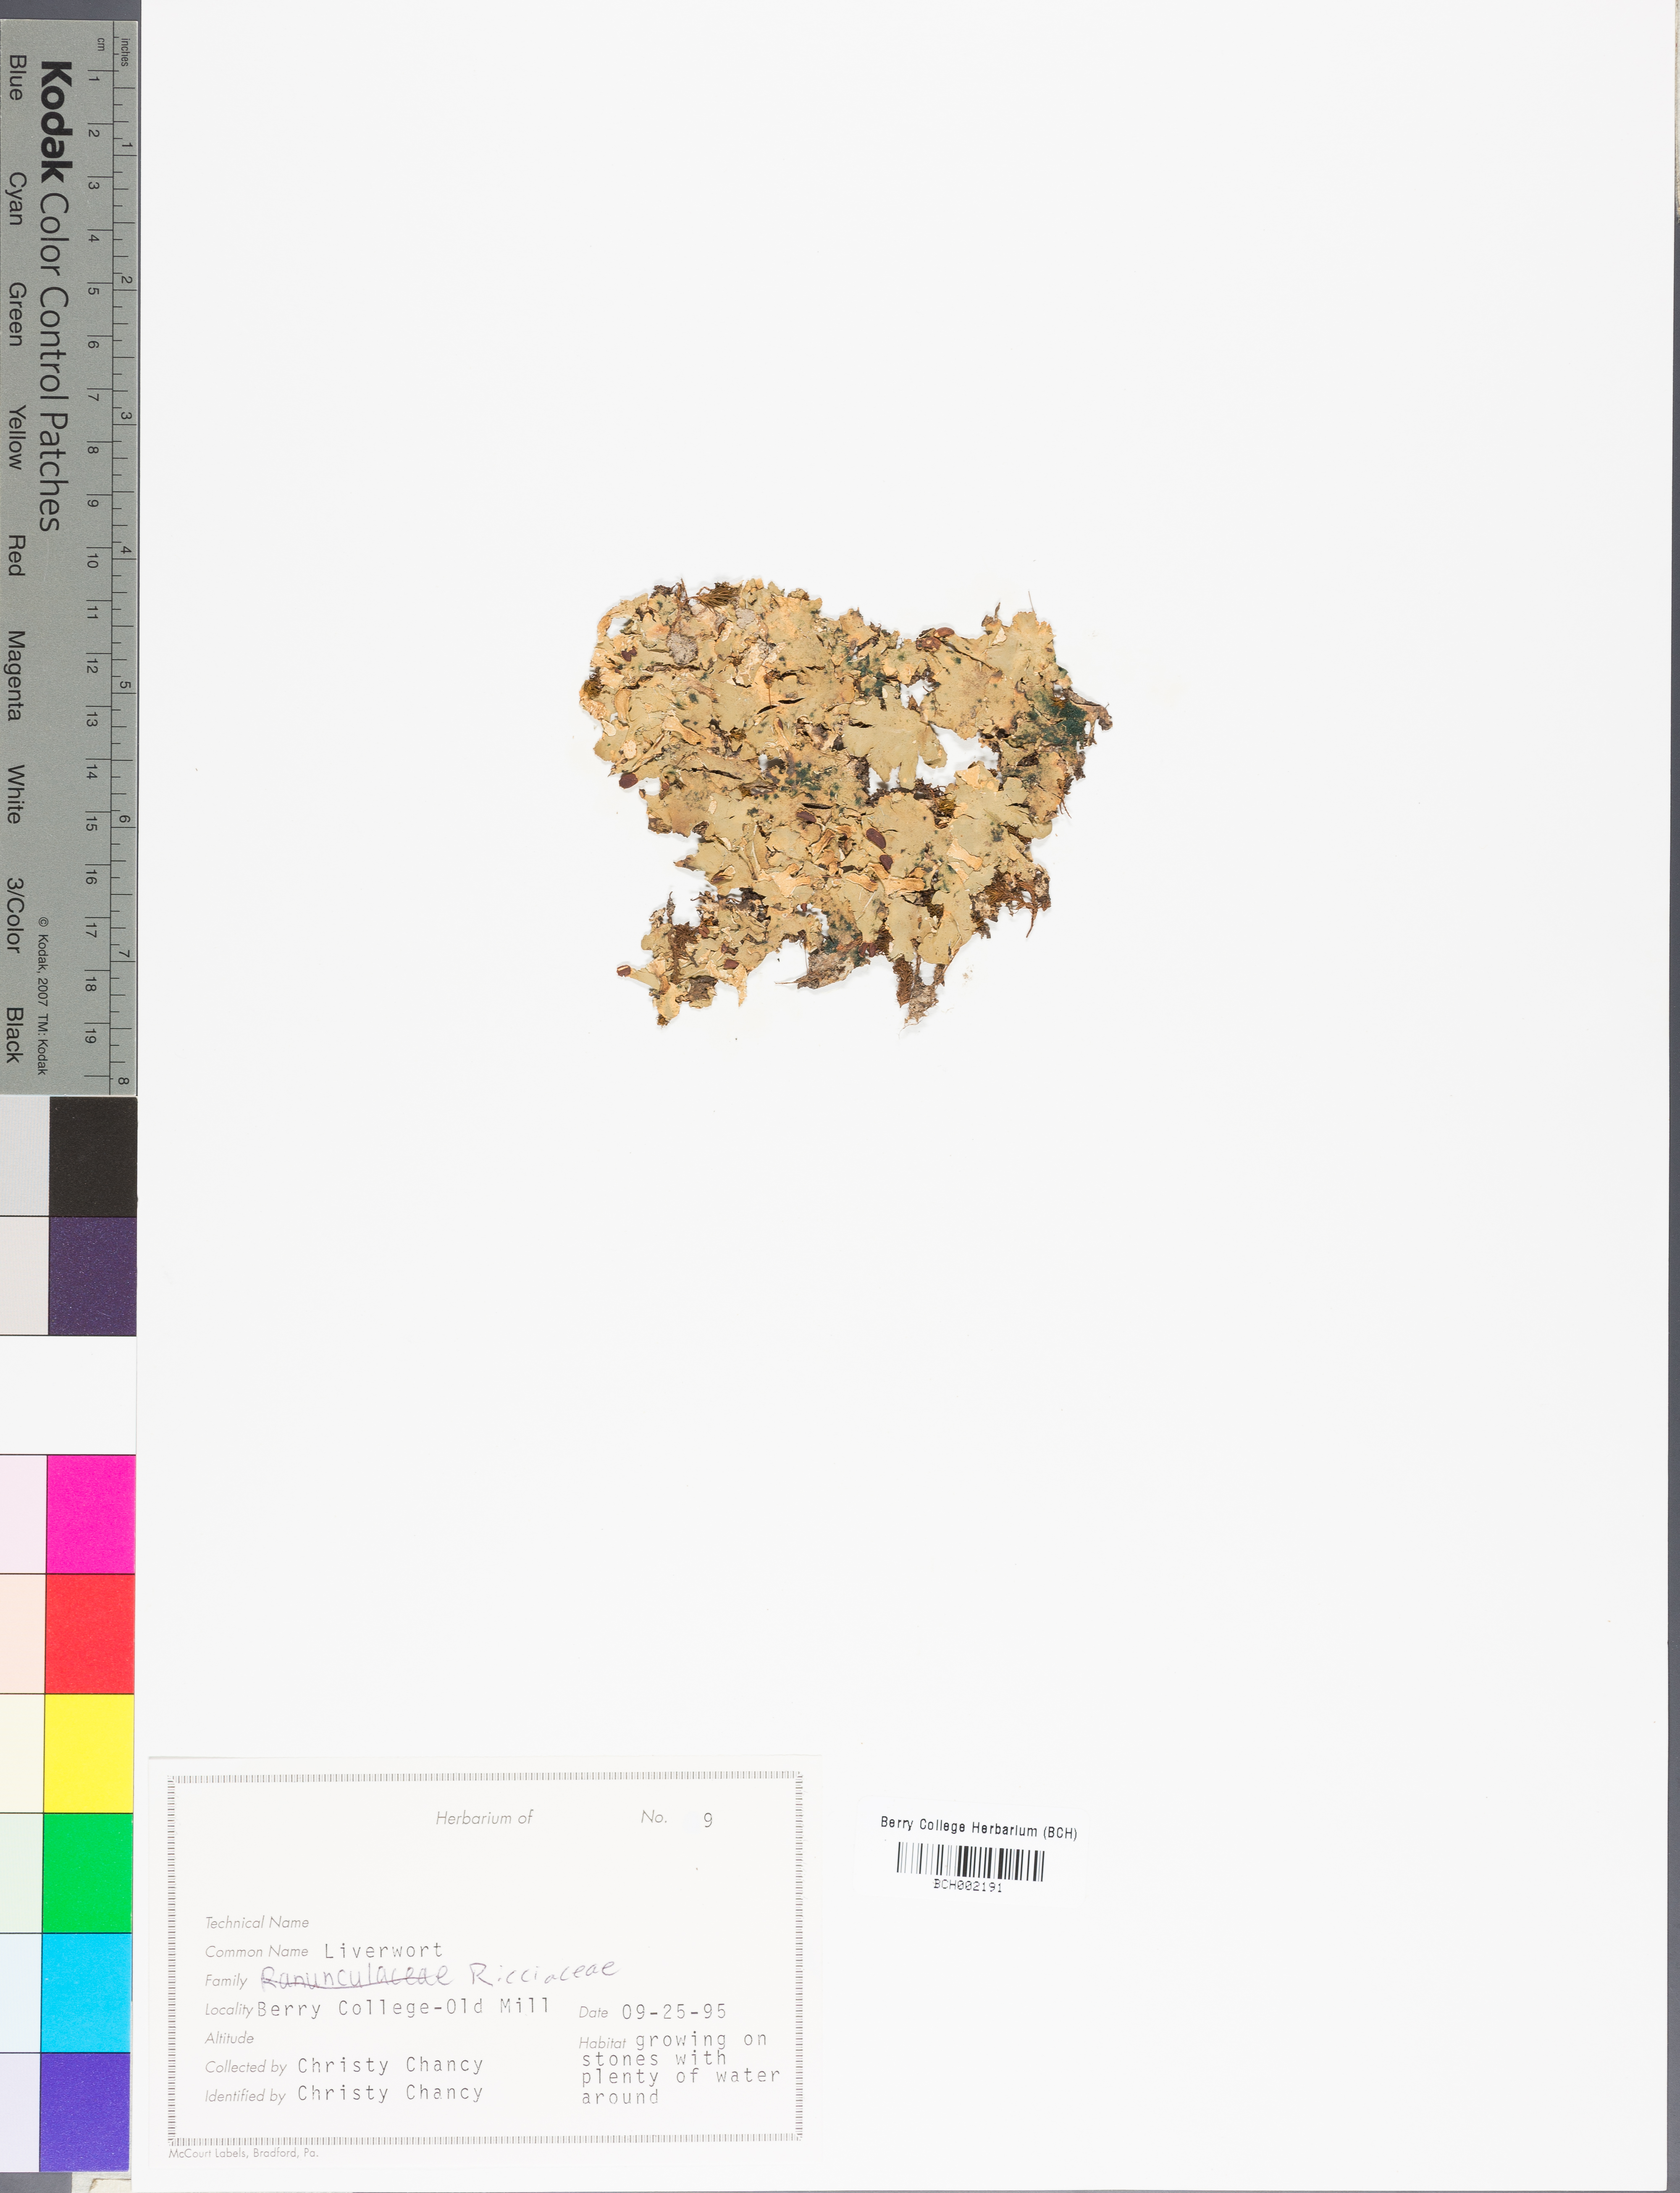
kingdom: Plantae
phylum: Marchantiophyta
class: Marchantiopsida
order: Marchantiales
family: Ricciaceae
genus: Riccia
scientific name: Riccia elliottii
